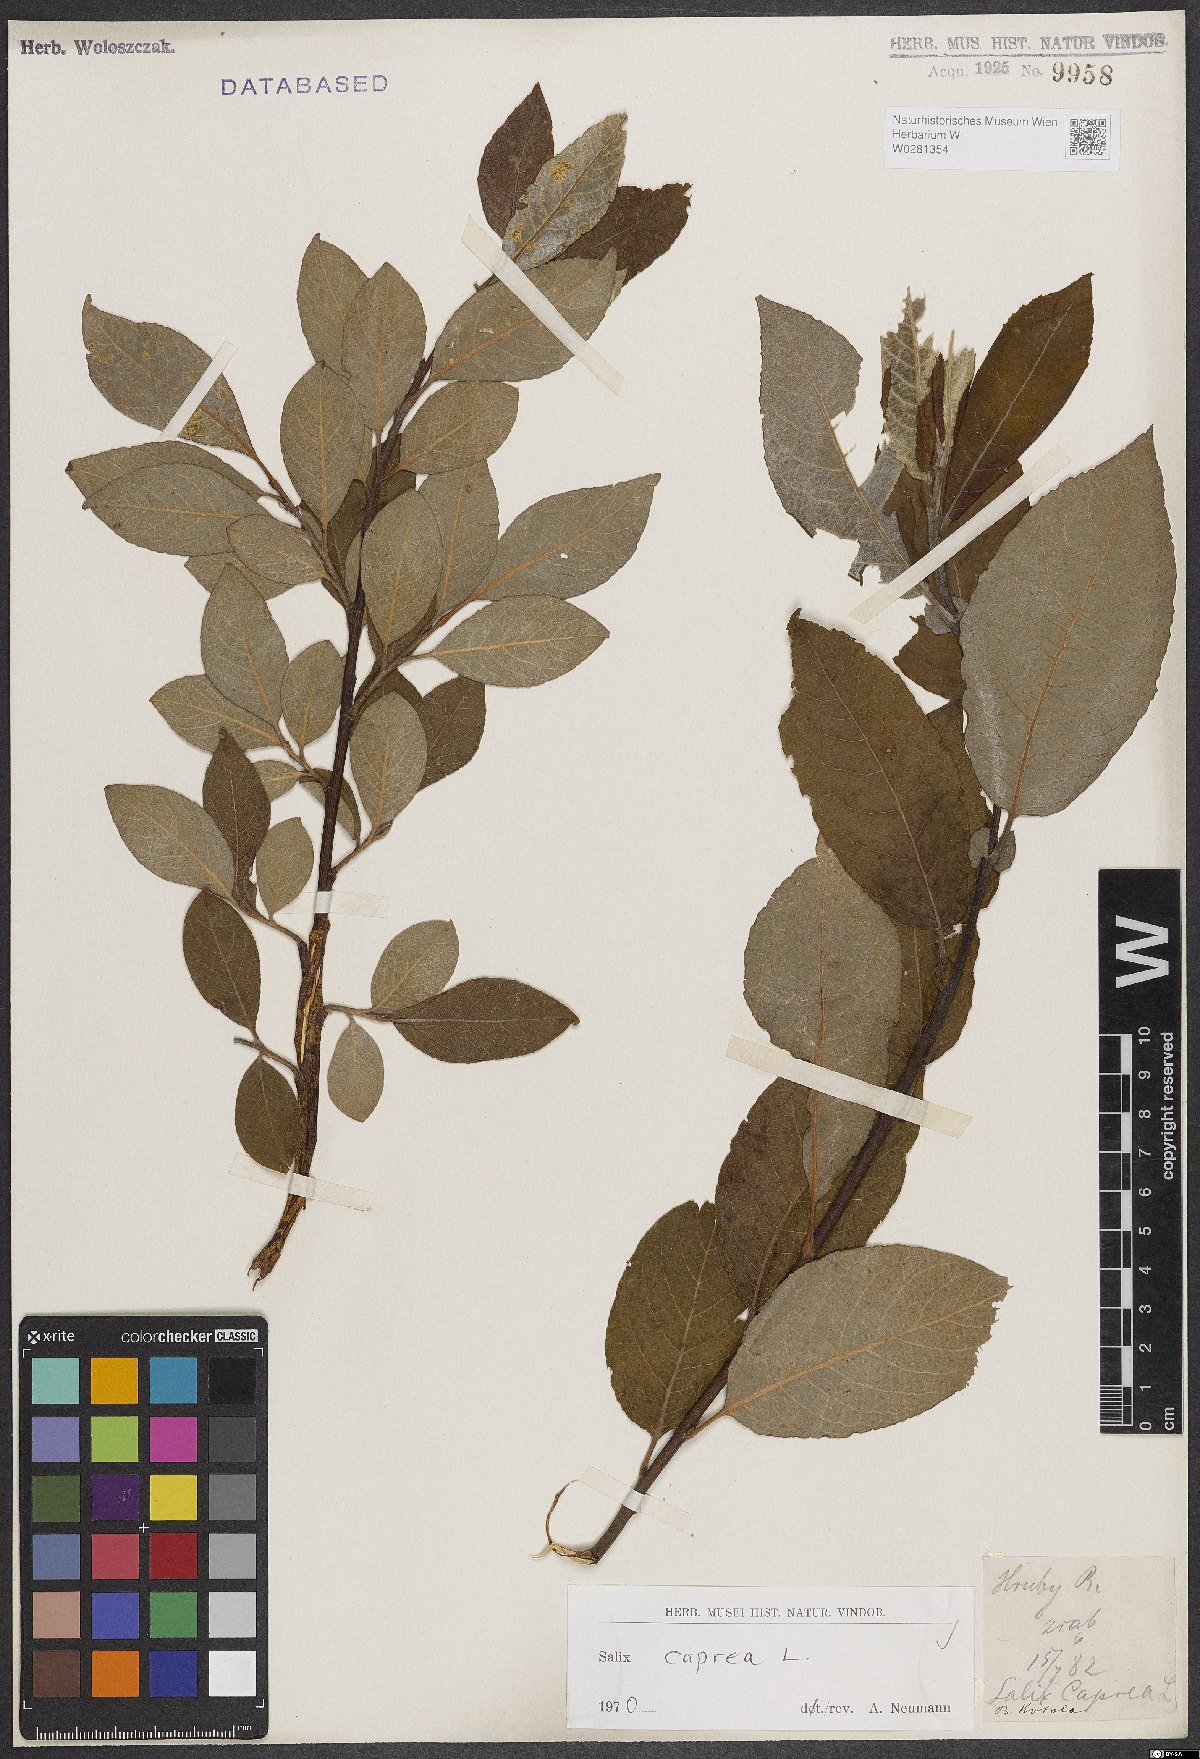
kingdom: Plantae
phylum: Tracheophyta
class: Magnoliopsida
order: Malpighiales
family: Salicaceae
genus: Salix
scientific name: Salix caprea
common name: Goat willow
